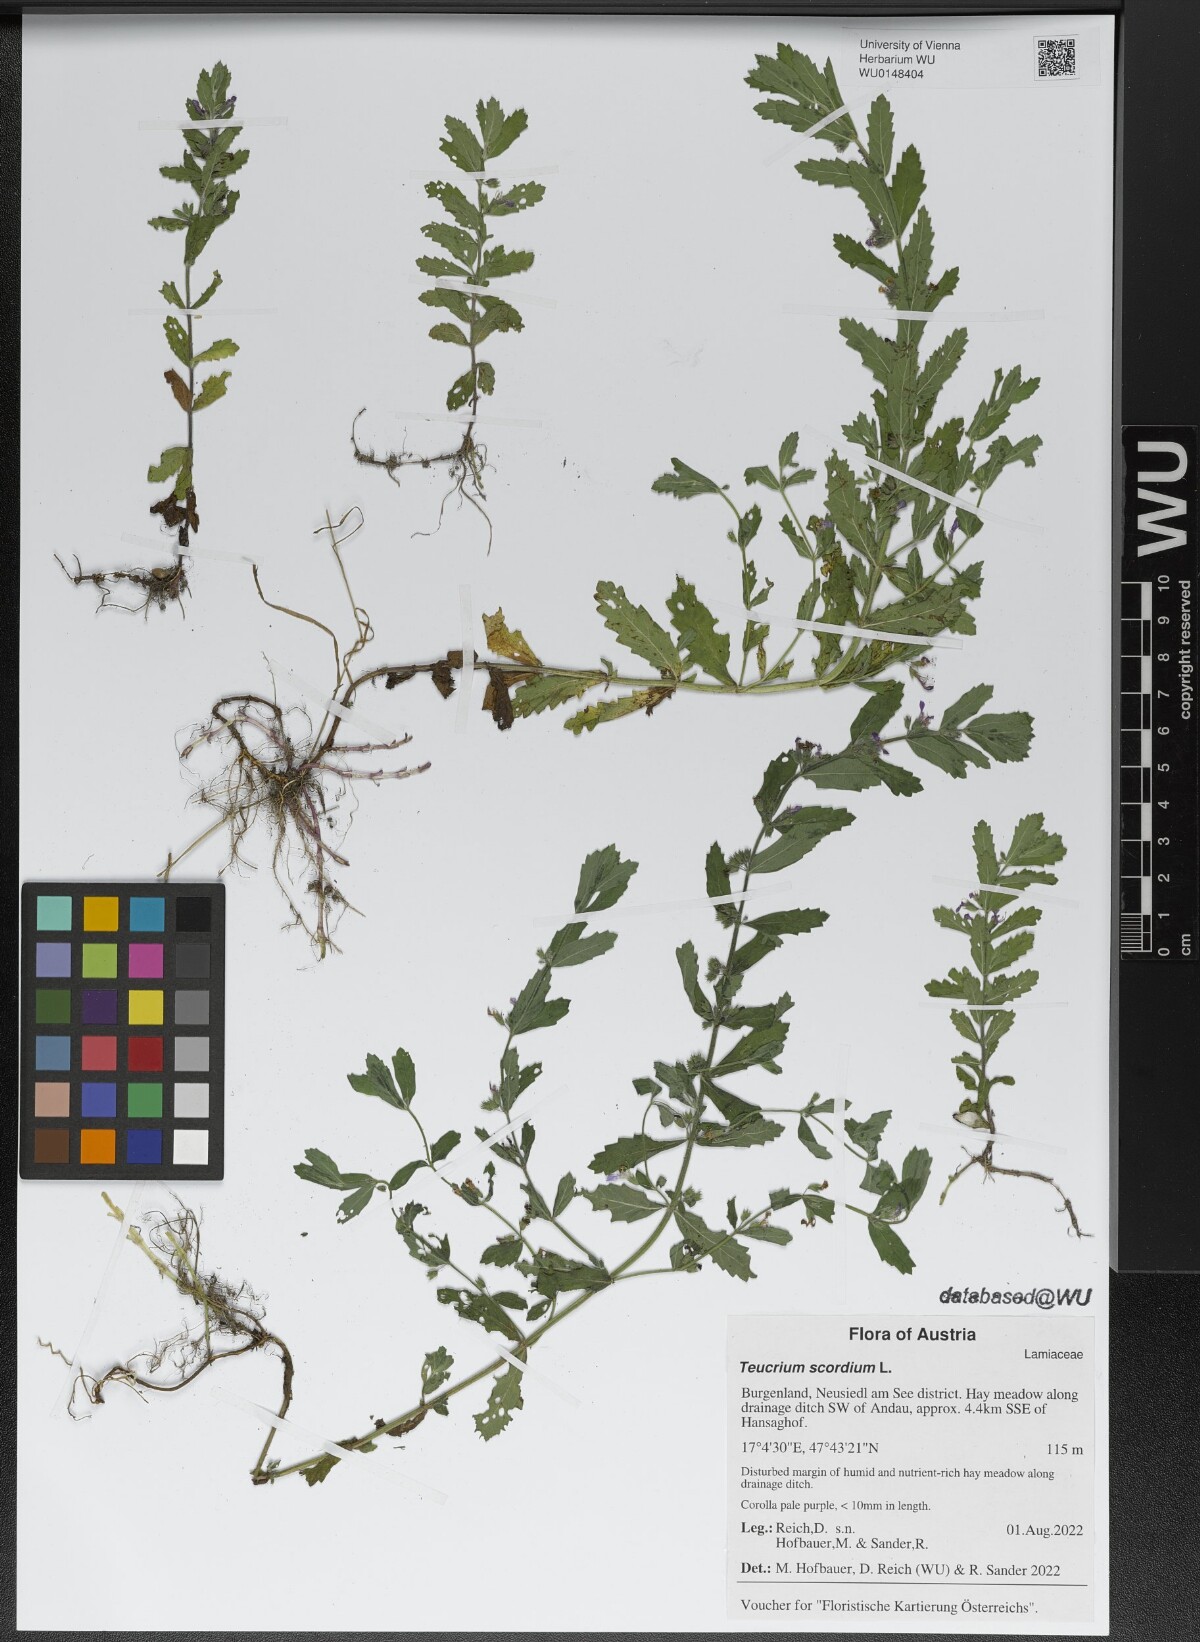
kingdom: Plantae
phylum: Tracheophyta
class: Magnoliopsida
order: Lamiales
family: Lamiaceae
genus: Teucrium
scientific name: Teucrium scordium
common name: Water germander
